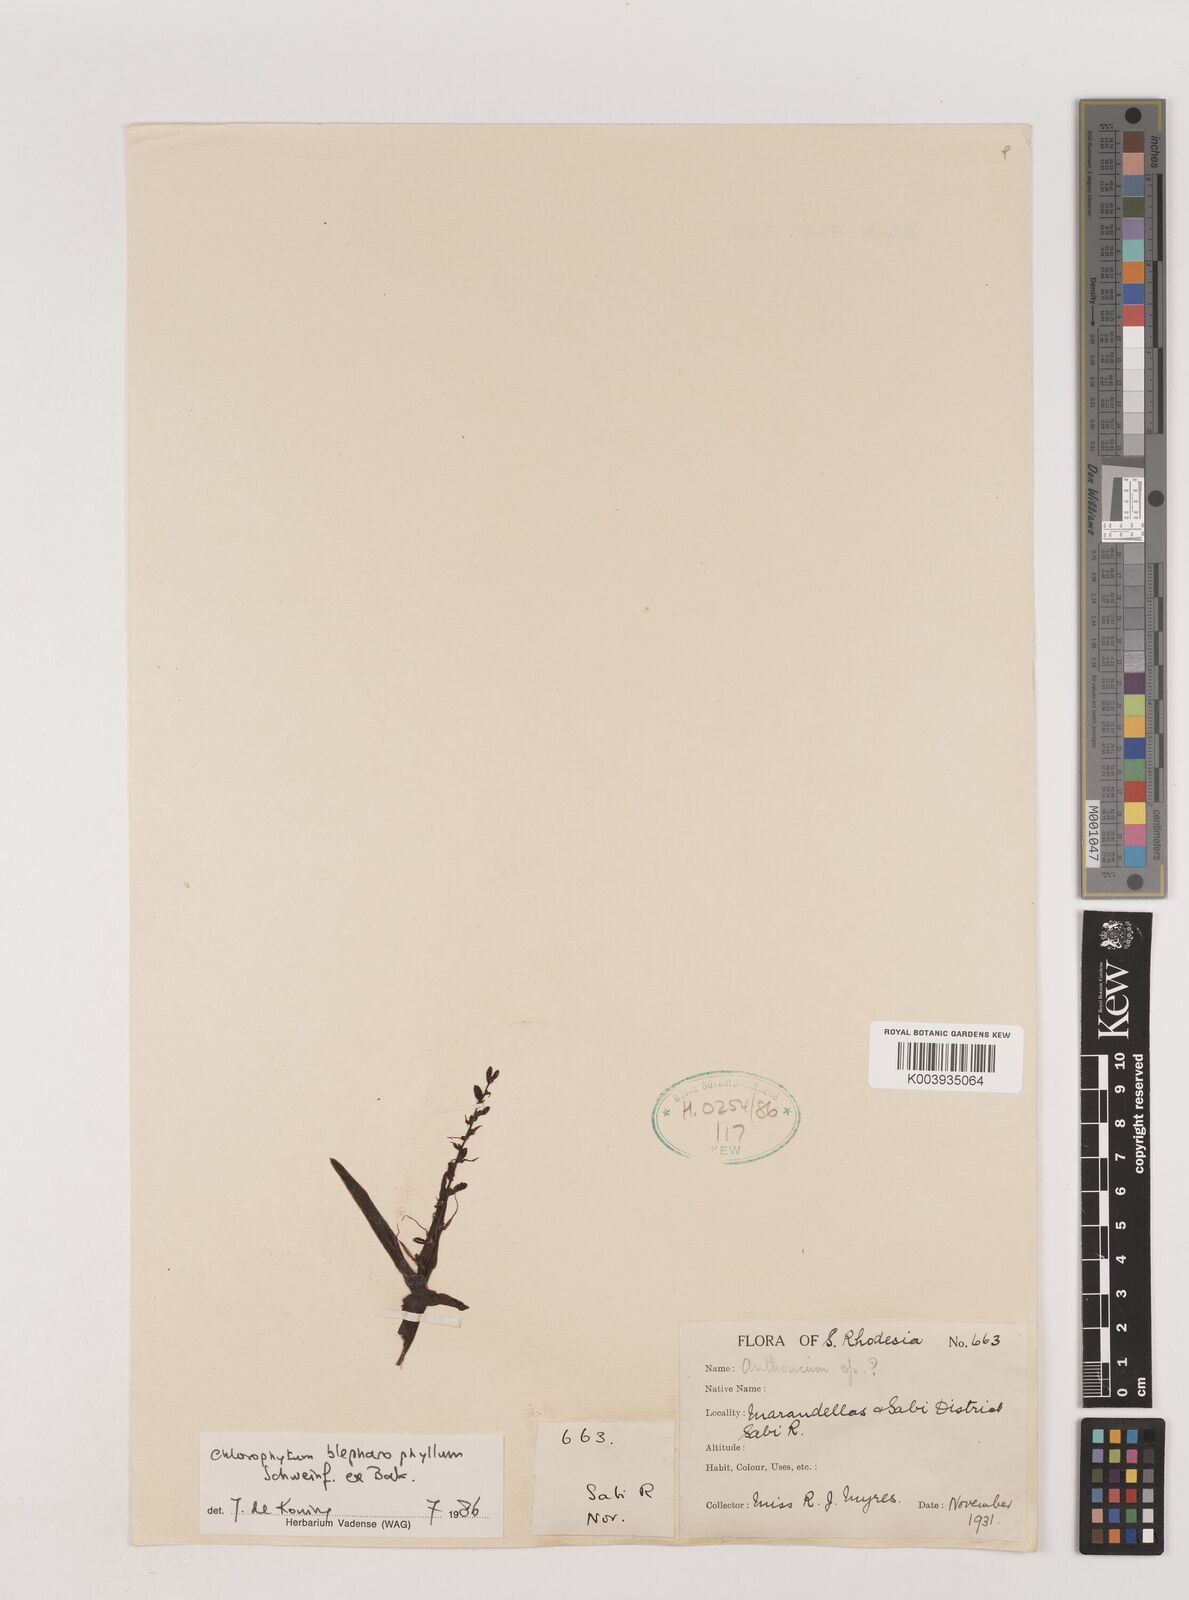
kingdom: Plantae
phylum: Tracheophyta
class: Liliopsida
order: Asparagales
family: Asparagaceae
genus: Chlorophytum
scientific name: Chlorophytum blepharophyllum
